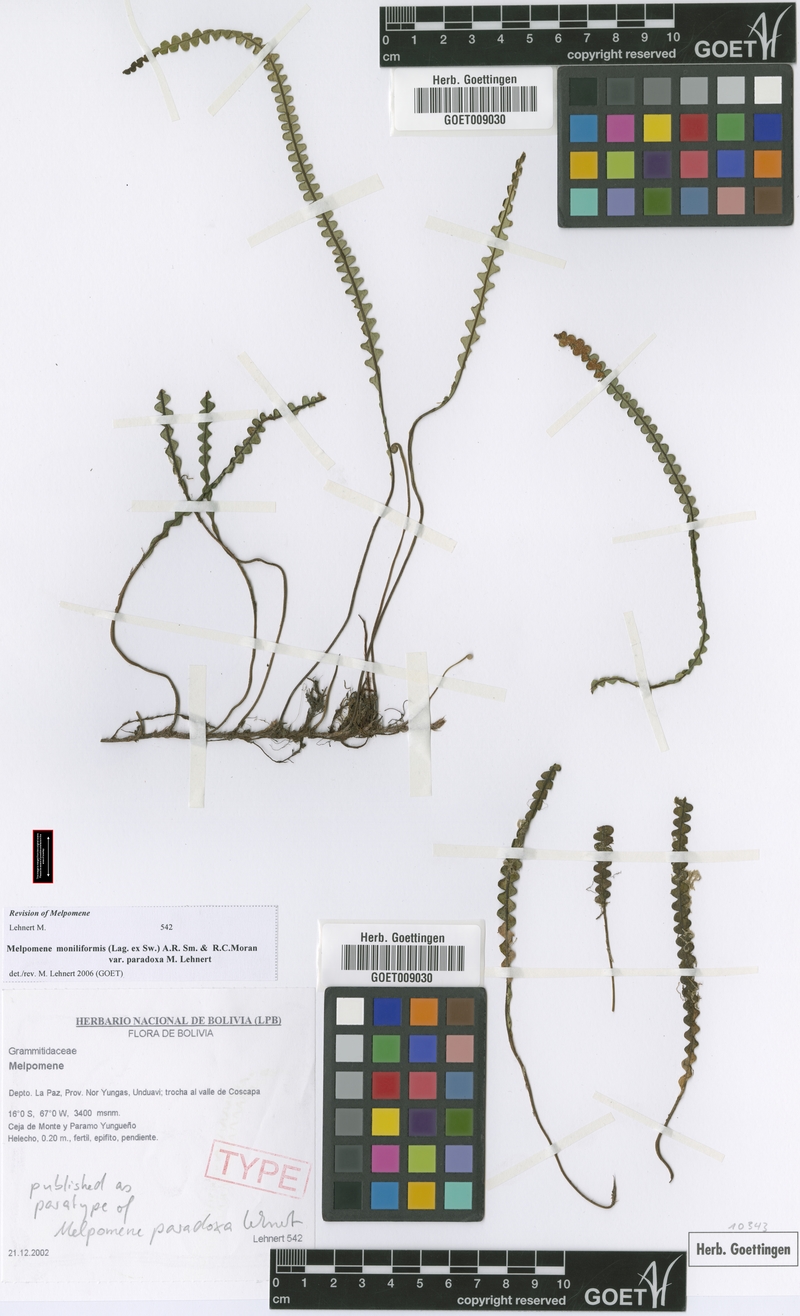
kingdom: Plantae
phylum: Tracheophyta
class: Polypodiopsida
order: Polypodiales
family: Polypodiaceae
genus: Melpomene
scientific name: Melpomene paradoxa
